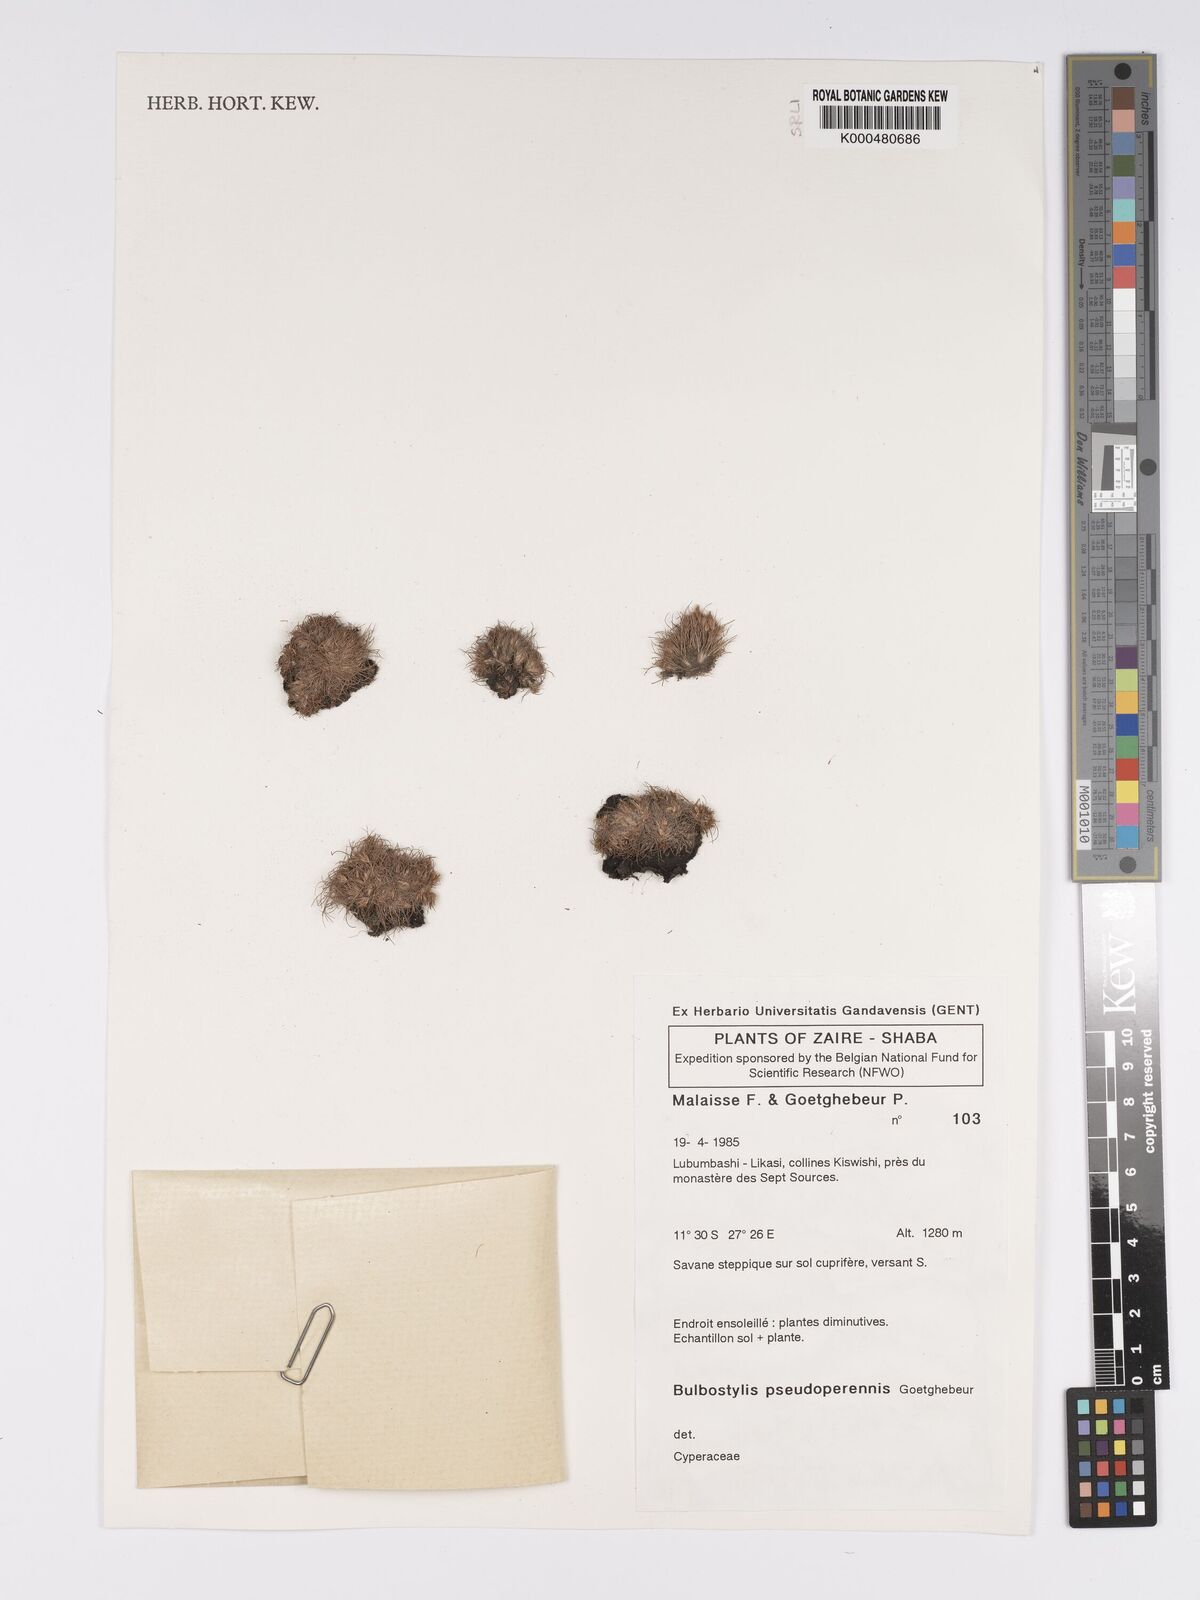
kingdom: Plantae
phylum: Tracheophyta
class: Liliopsida
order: Poales
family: Cyperaceae
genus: Bulbostylis
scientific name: Bulbostylis abbreviata
